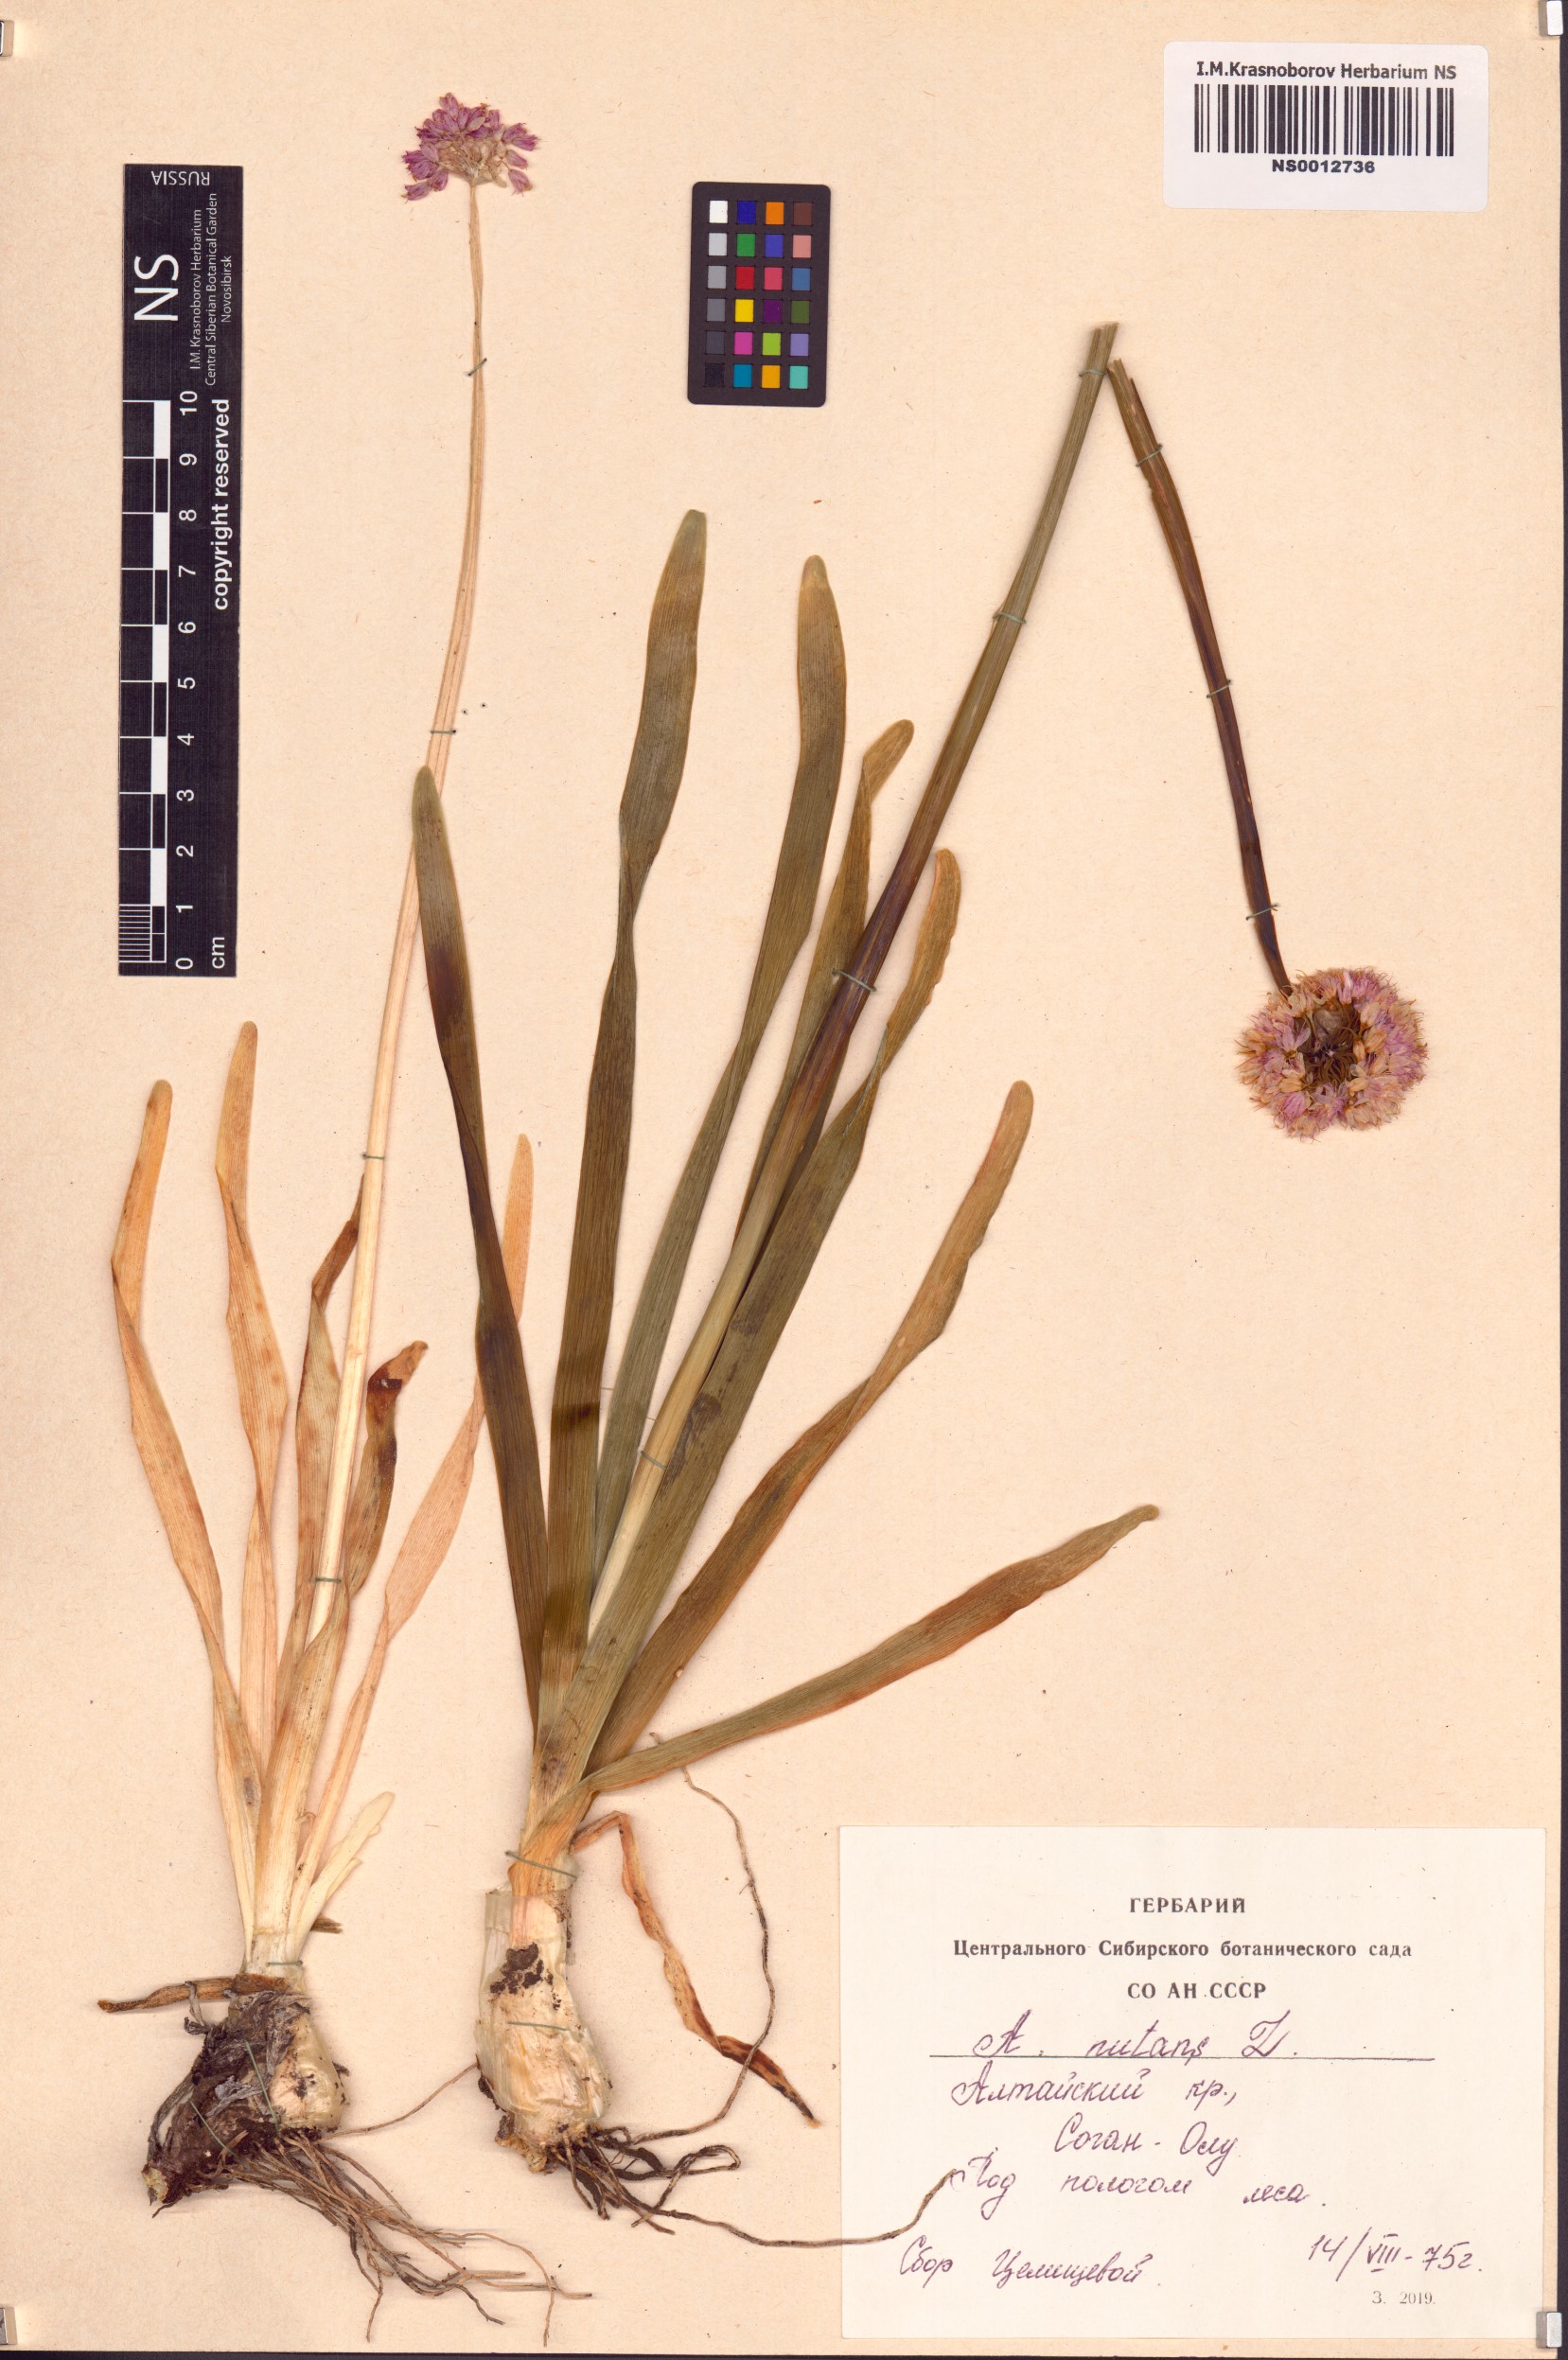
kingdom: Plantae
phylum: Tracheophyta
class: Liliopsida
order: Asparagales
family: Amaryllidaceae
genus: Allium
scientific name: Allium nutans
